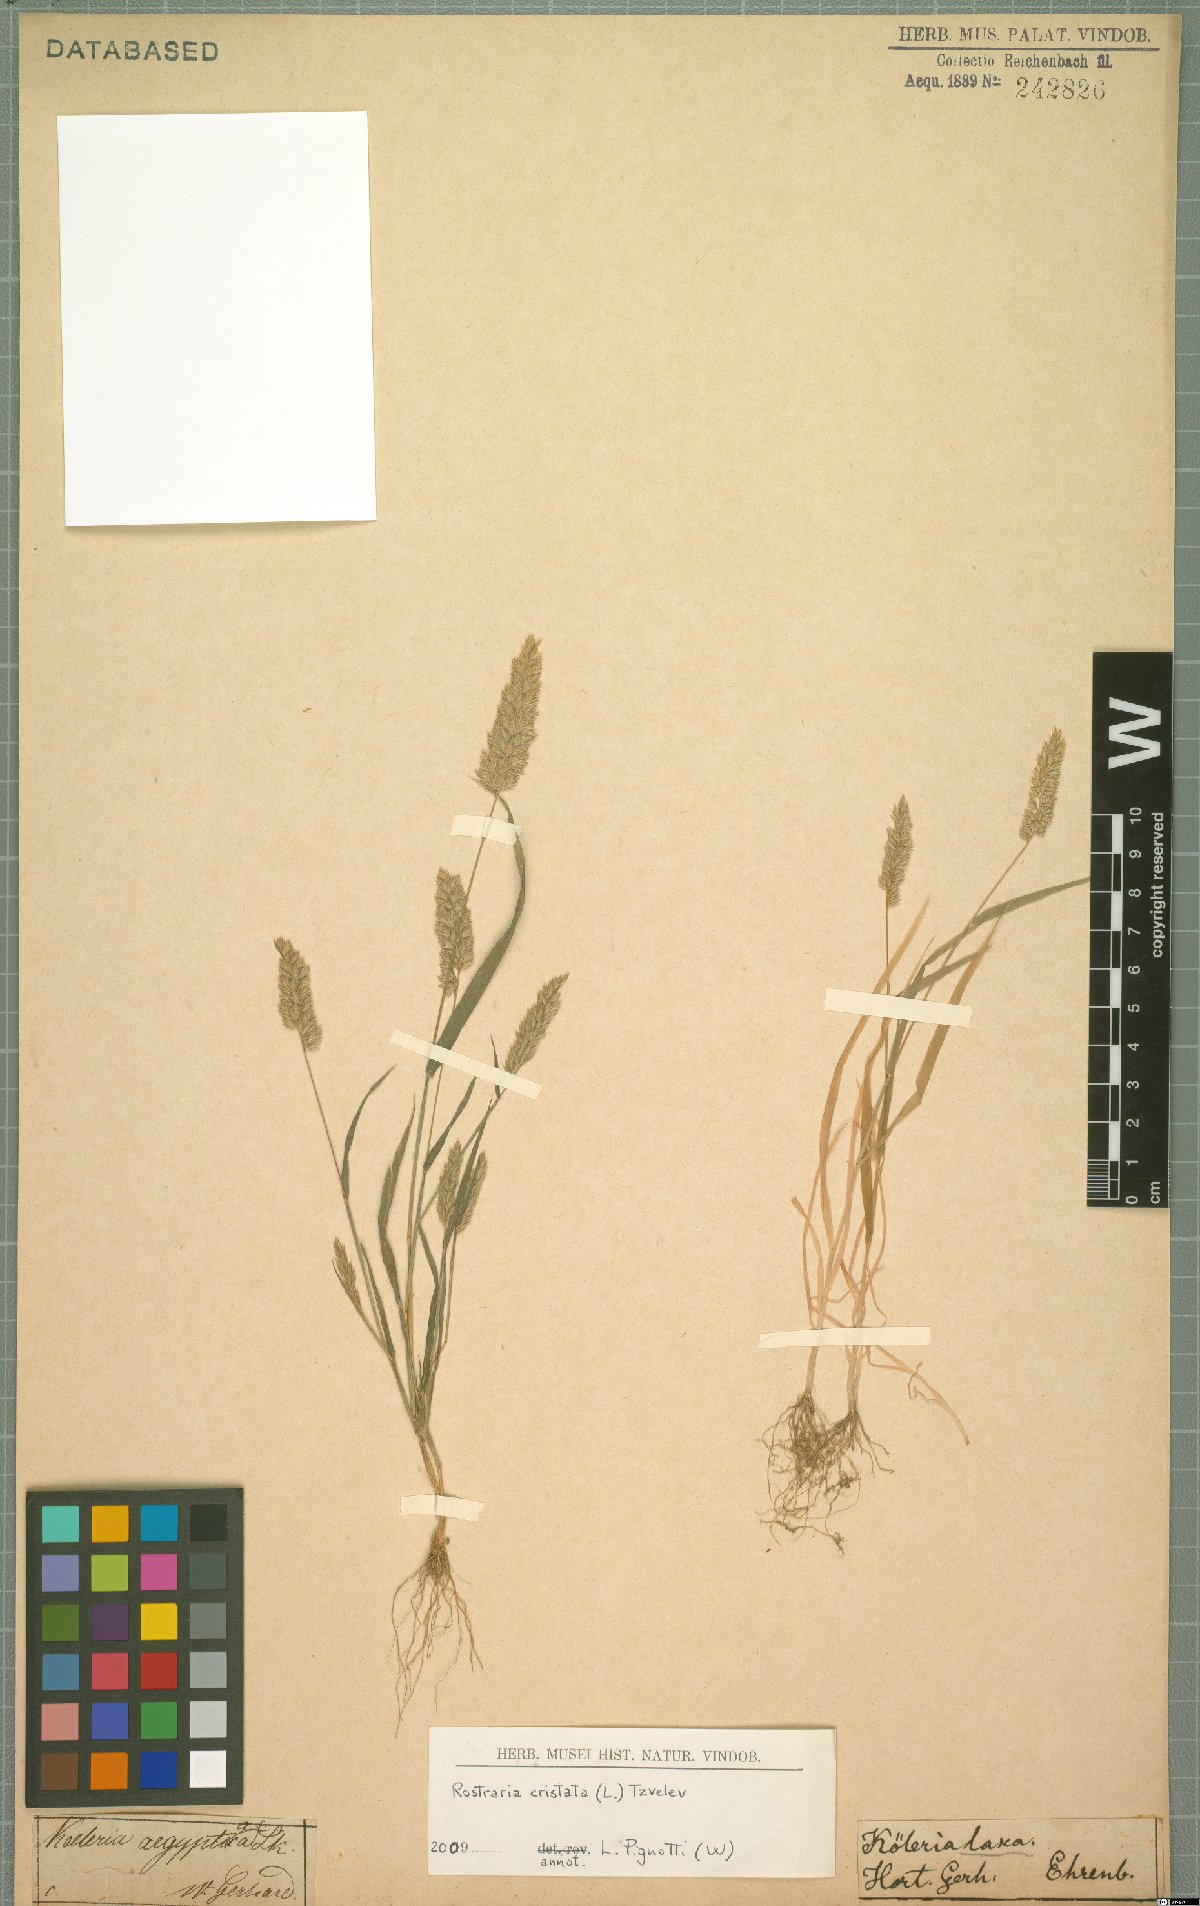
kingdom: Plantae
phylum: Tracheophyta
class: Liliopsida
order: Poales
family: Poaceae
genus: Rostraria
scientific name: Rostraria cristata
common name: Mediterranean hair-grass
